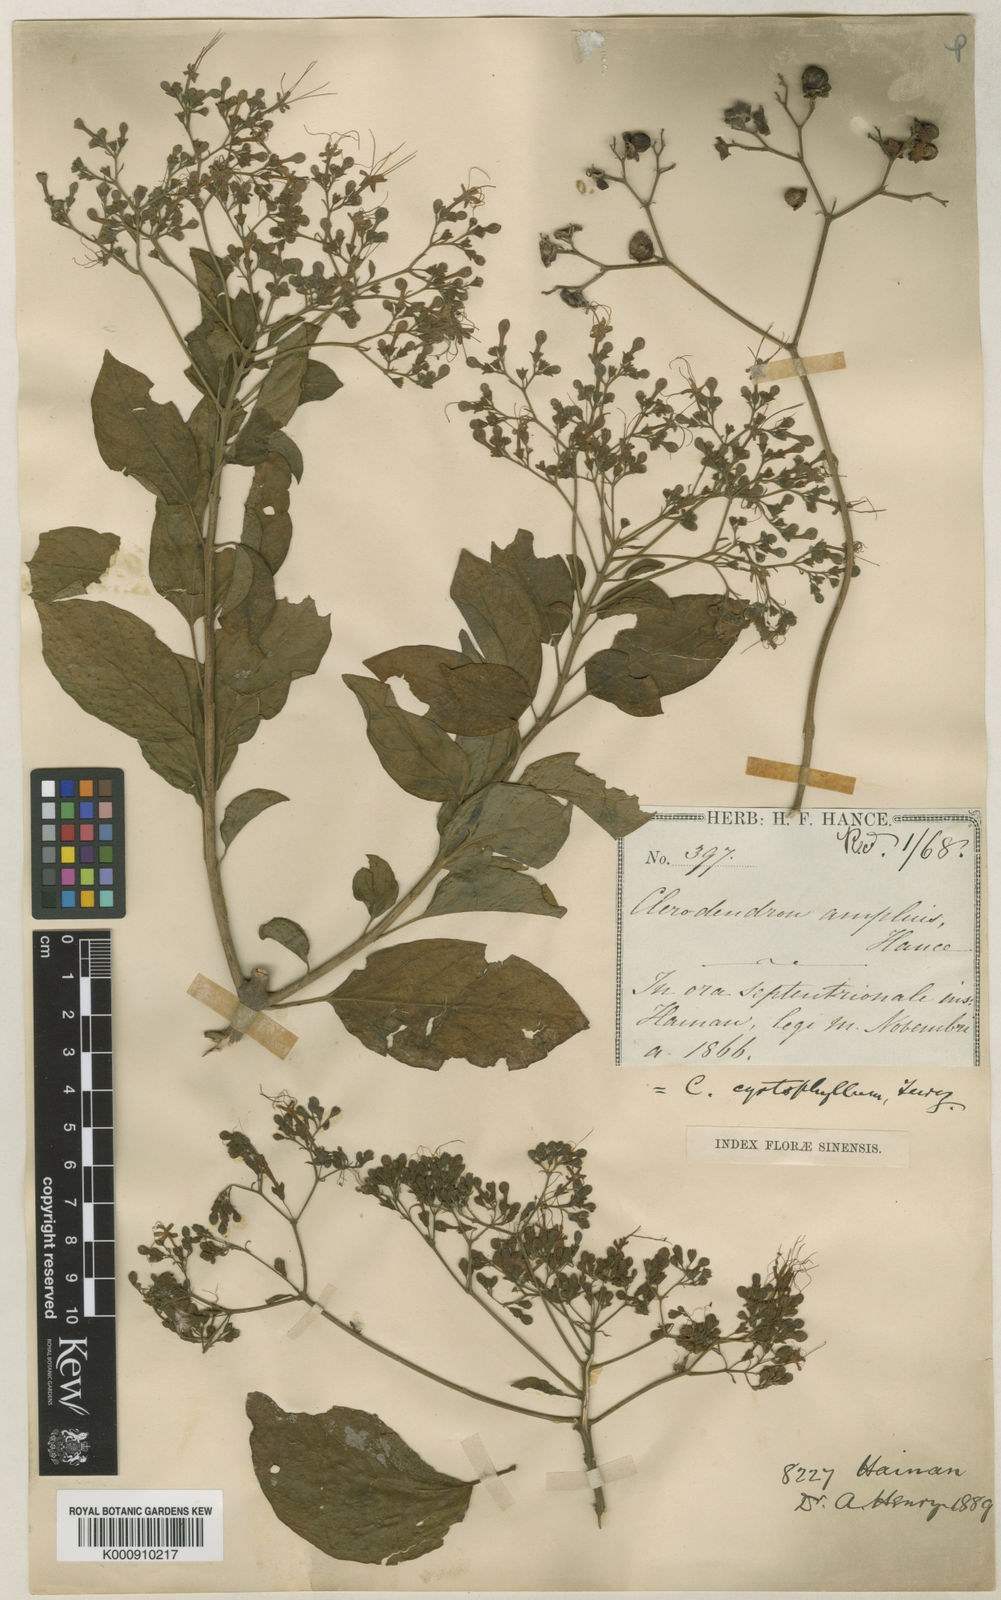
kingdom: Plantae
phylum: Tracheophyta
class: Magnoliopsida
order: Lamiales
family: Lamiaceae
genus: Clerodendrum
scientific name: Clerodendrum cyrtophyllum
